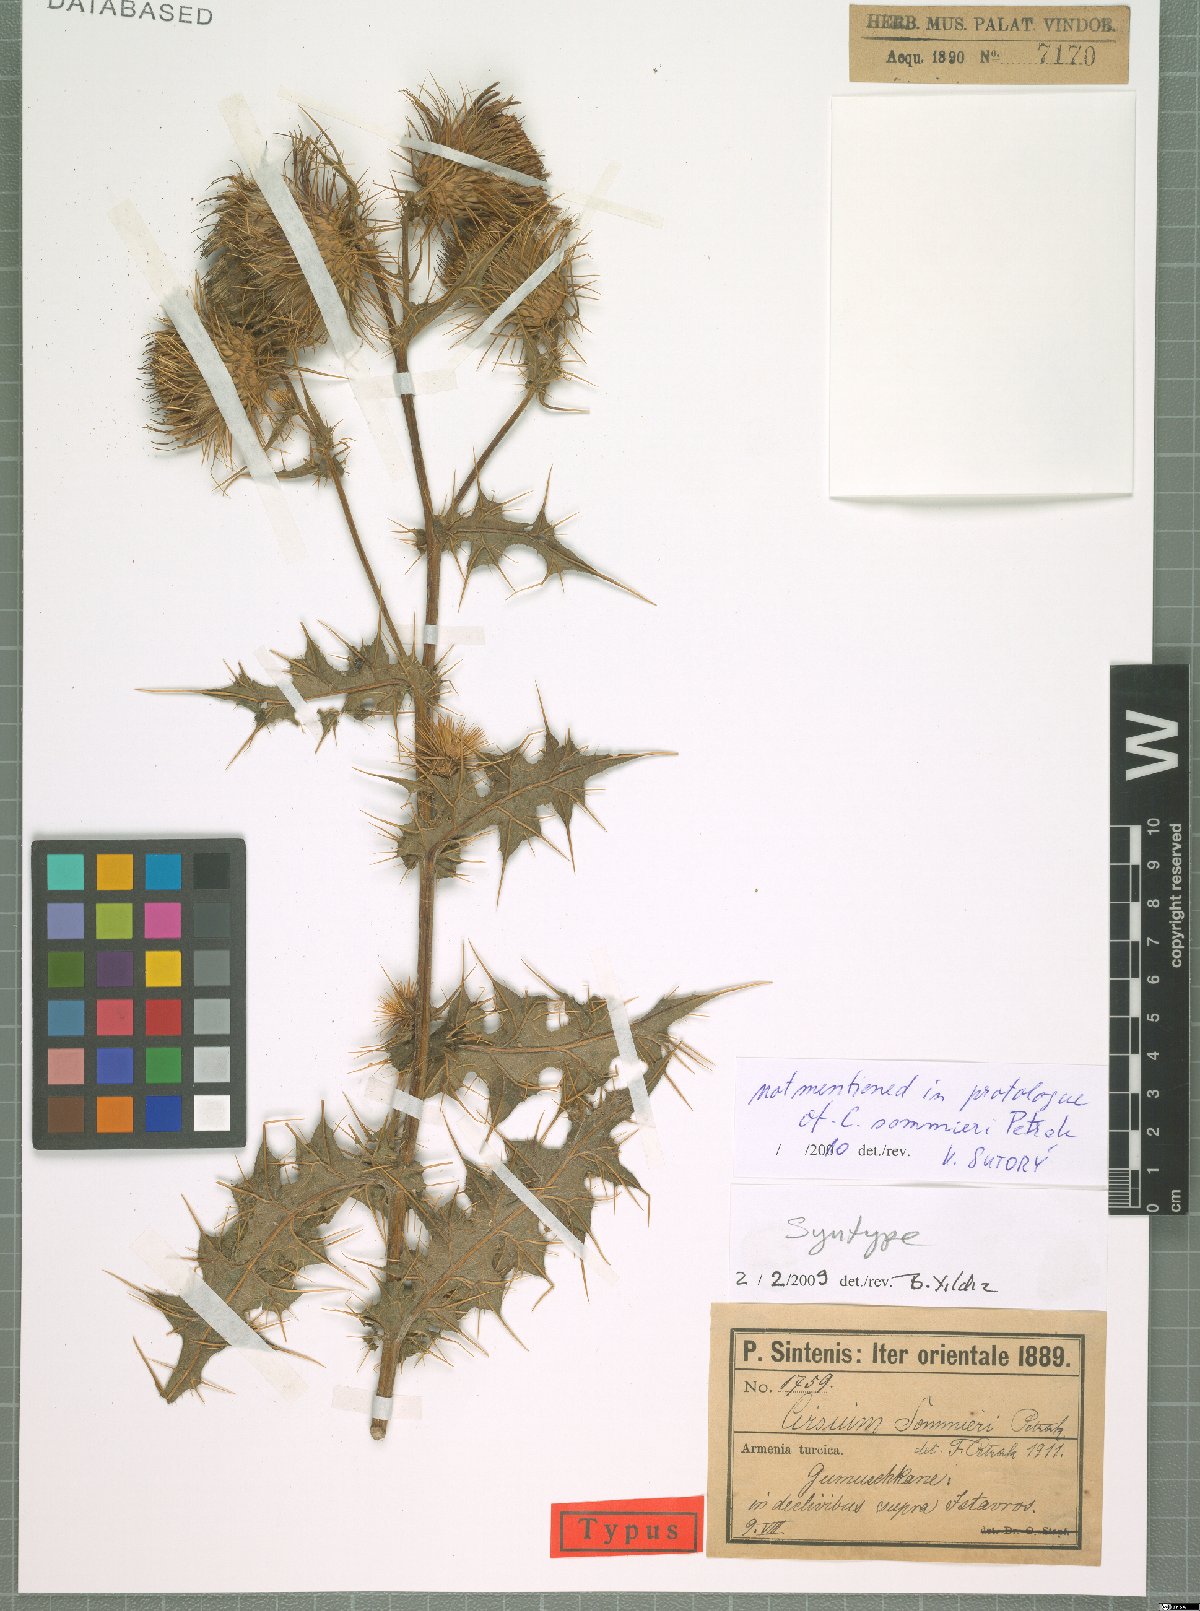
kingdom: Plantae
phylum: Tracheophyta
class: Magnoliopsida
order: Asterales
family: Asteraceae
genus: Lophiolepis
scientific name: Lophiolepis sommieri
